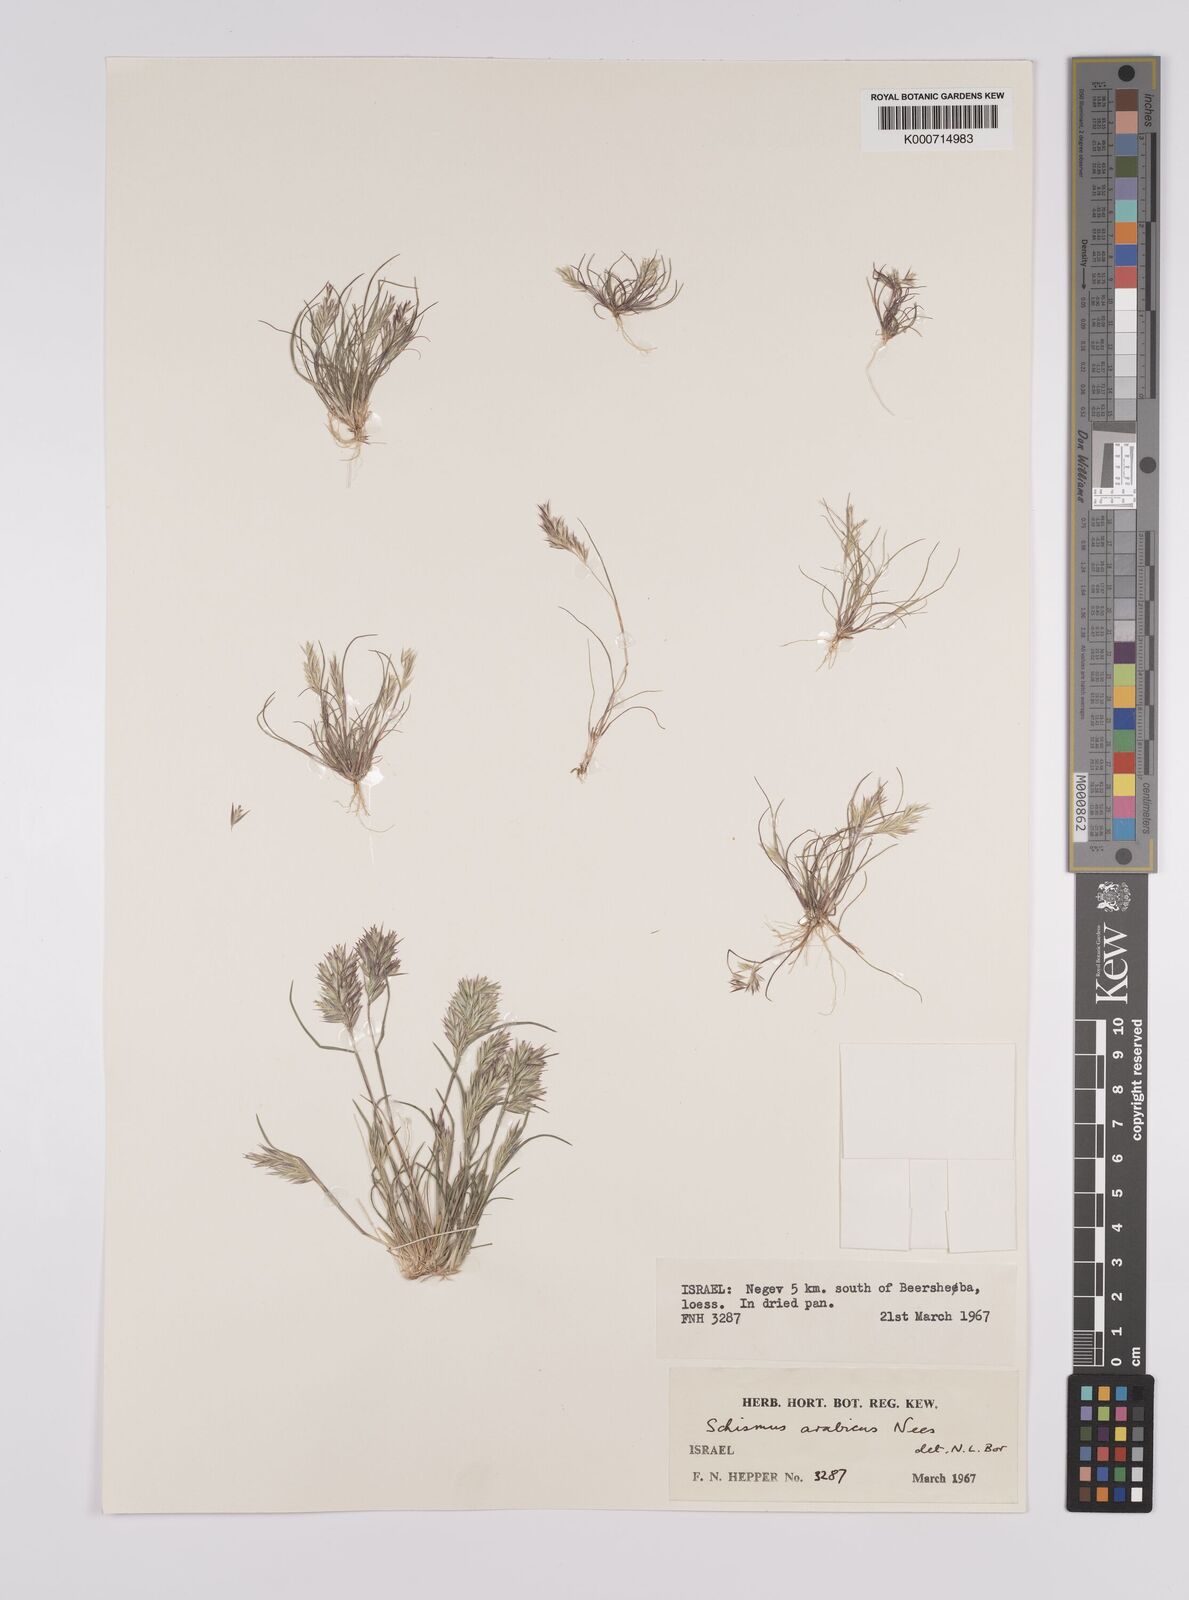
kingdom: Plantae
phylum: Tracheophyta
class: Liliopsida
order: Poales
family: Poaceae
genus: Schismus
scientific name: Schismus arabicus
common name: Arabian schismus
